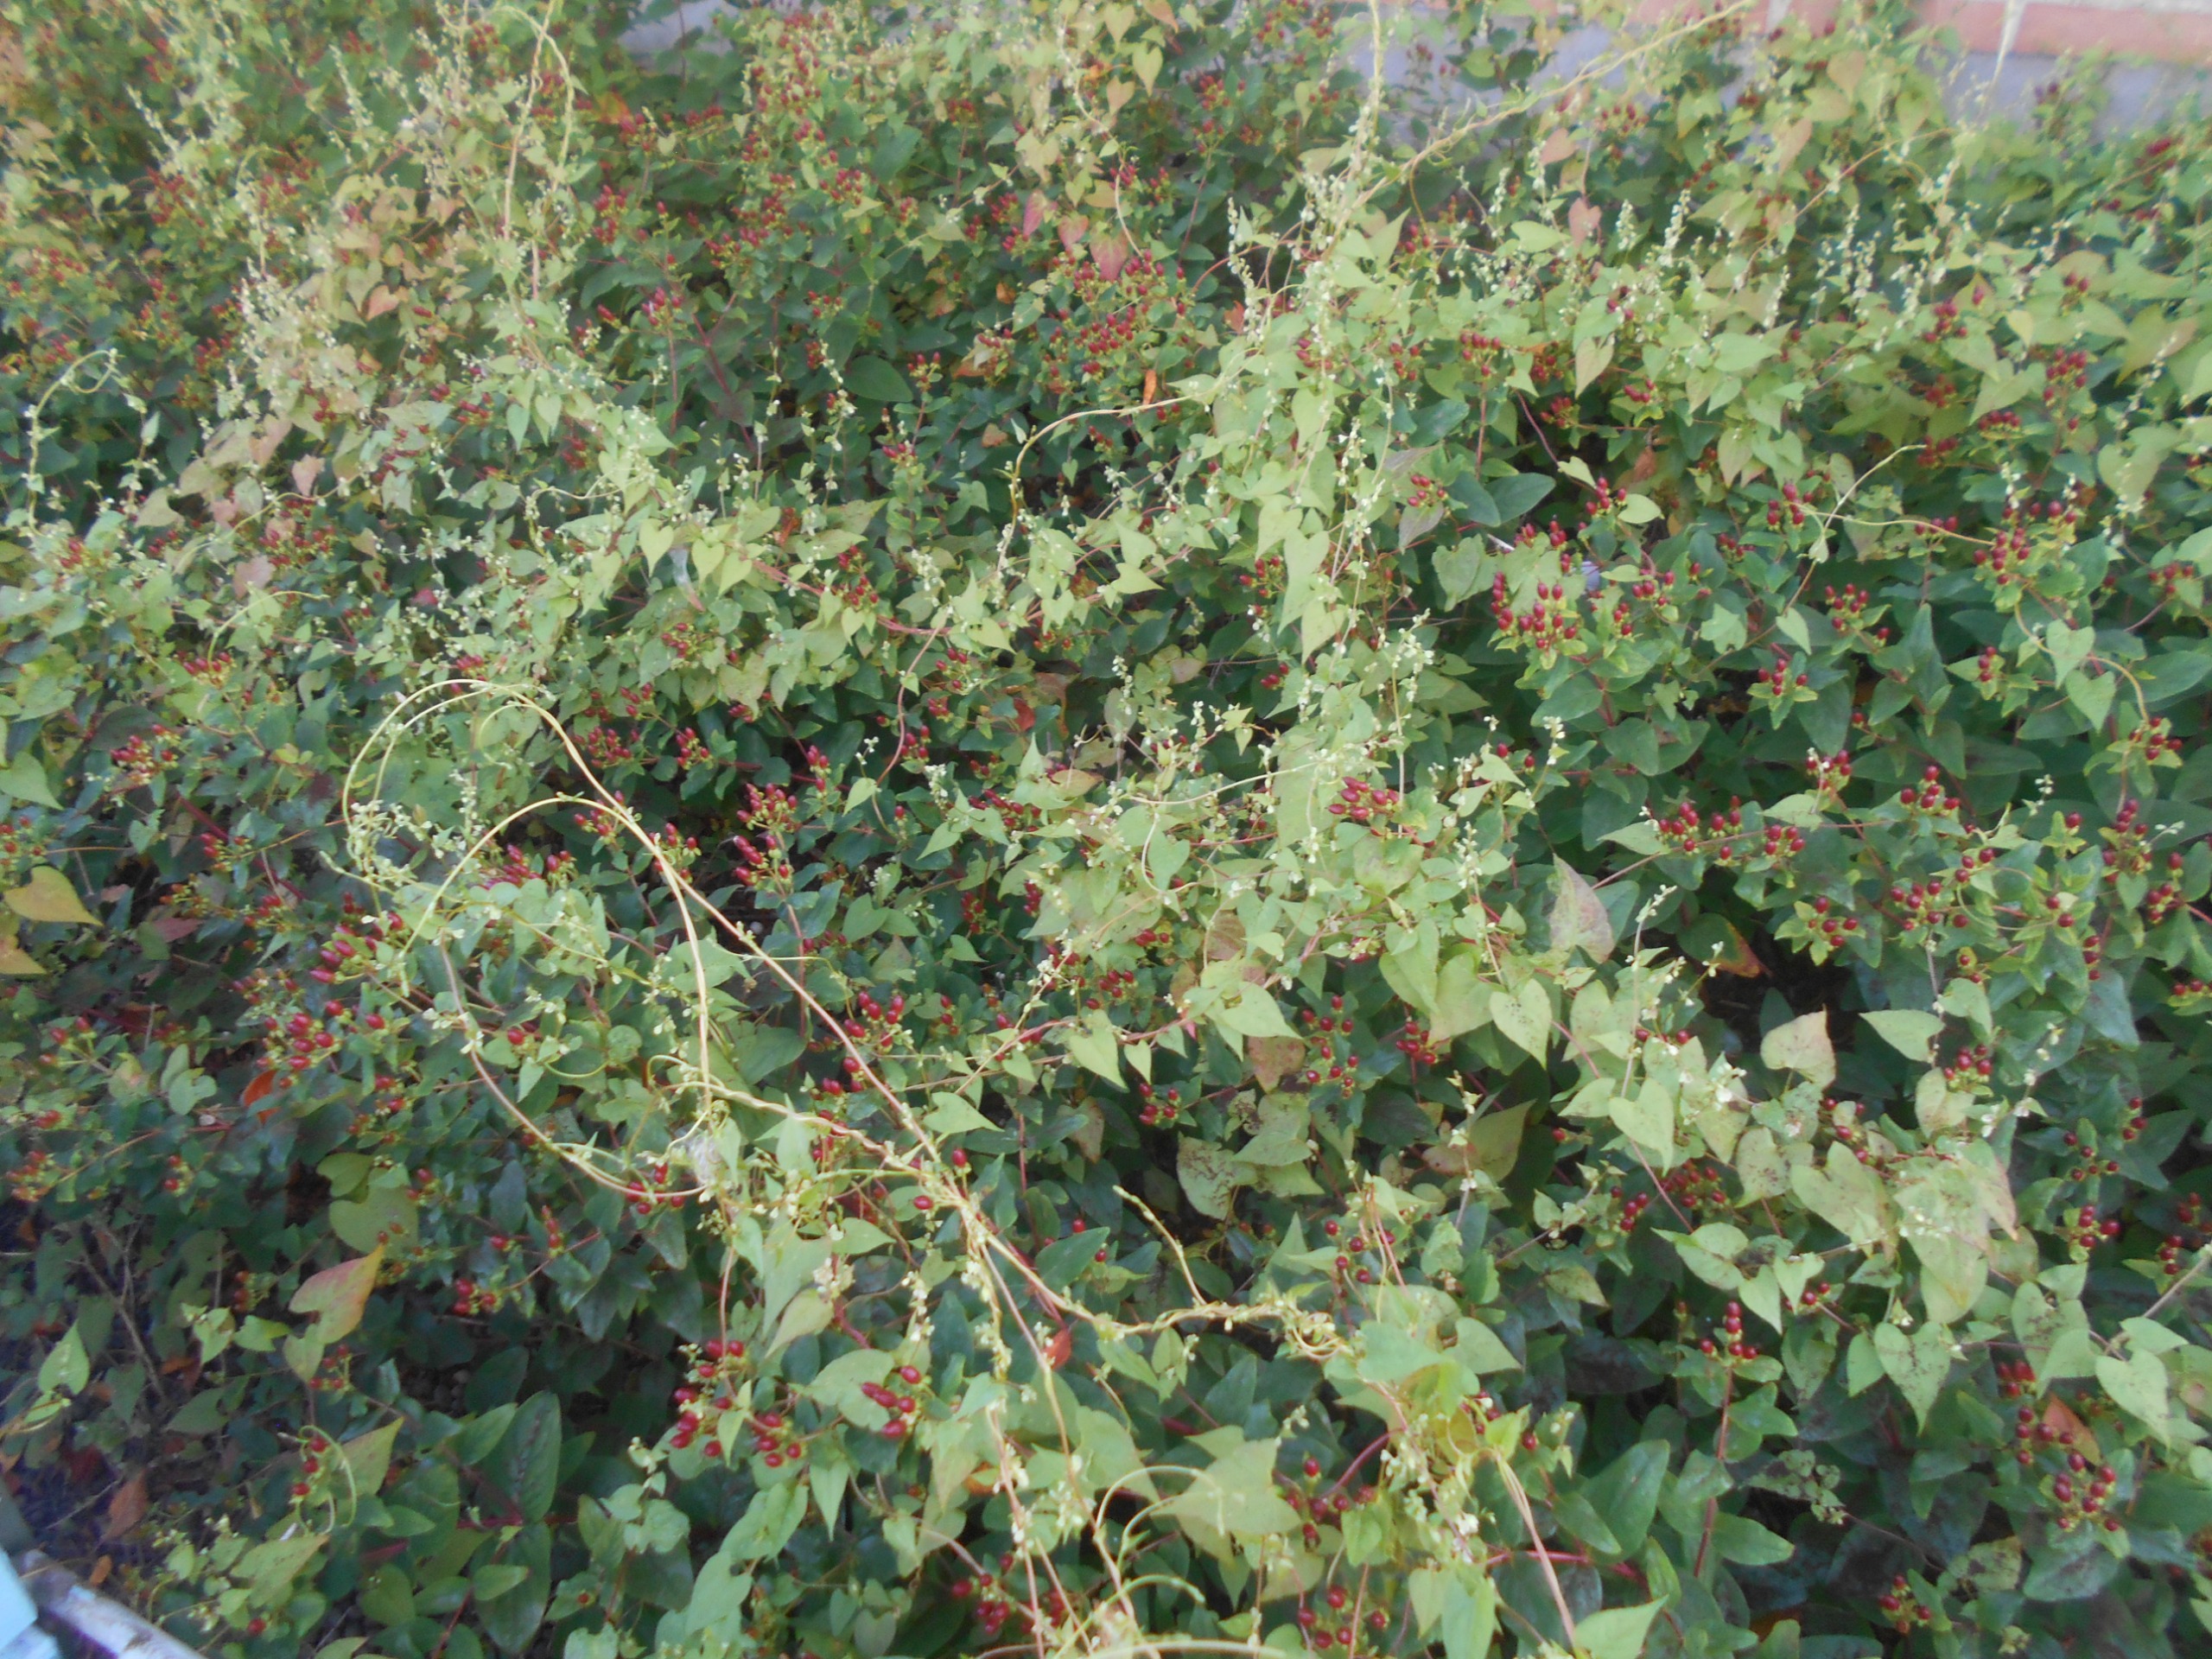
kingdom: Plantae
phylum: Tracheophyta
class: Magnoliopsida
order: Caryophyllales
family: Polygonaceae
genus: Fallopia
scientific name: Fallopia dumetorum
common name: Vinge-pileurt
